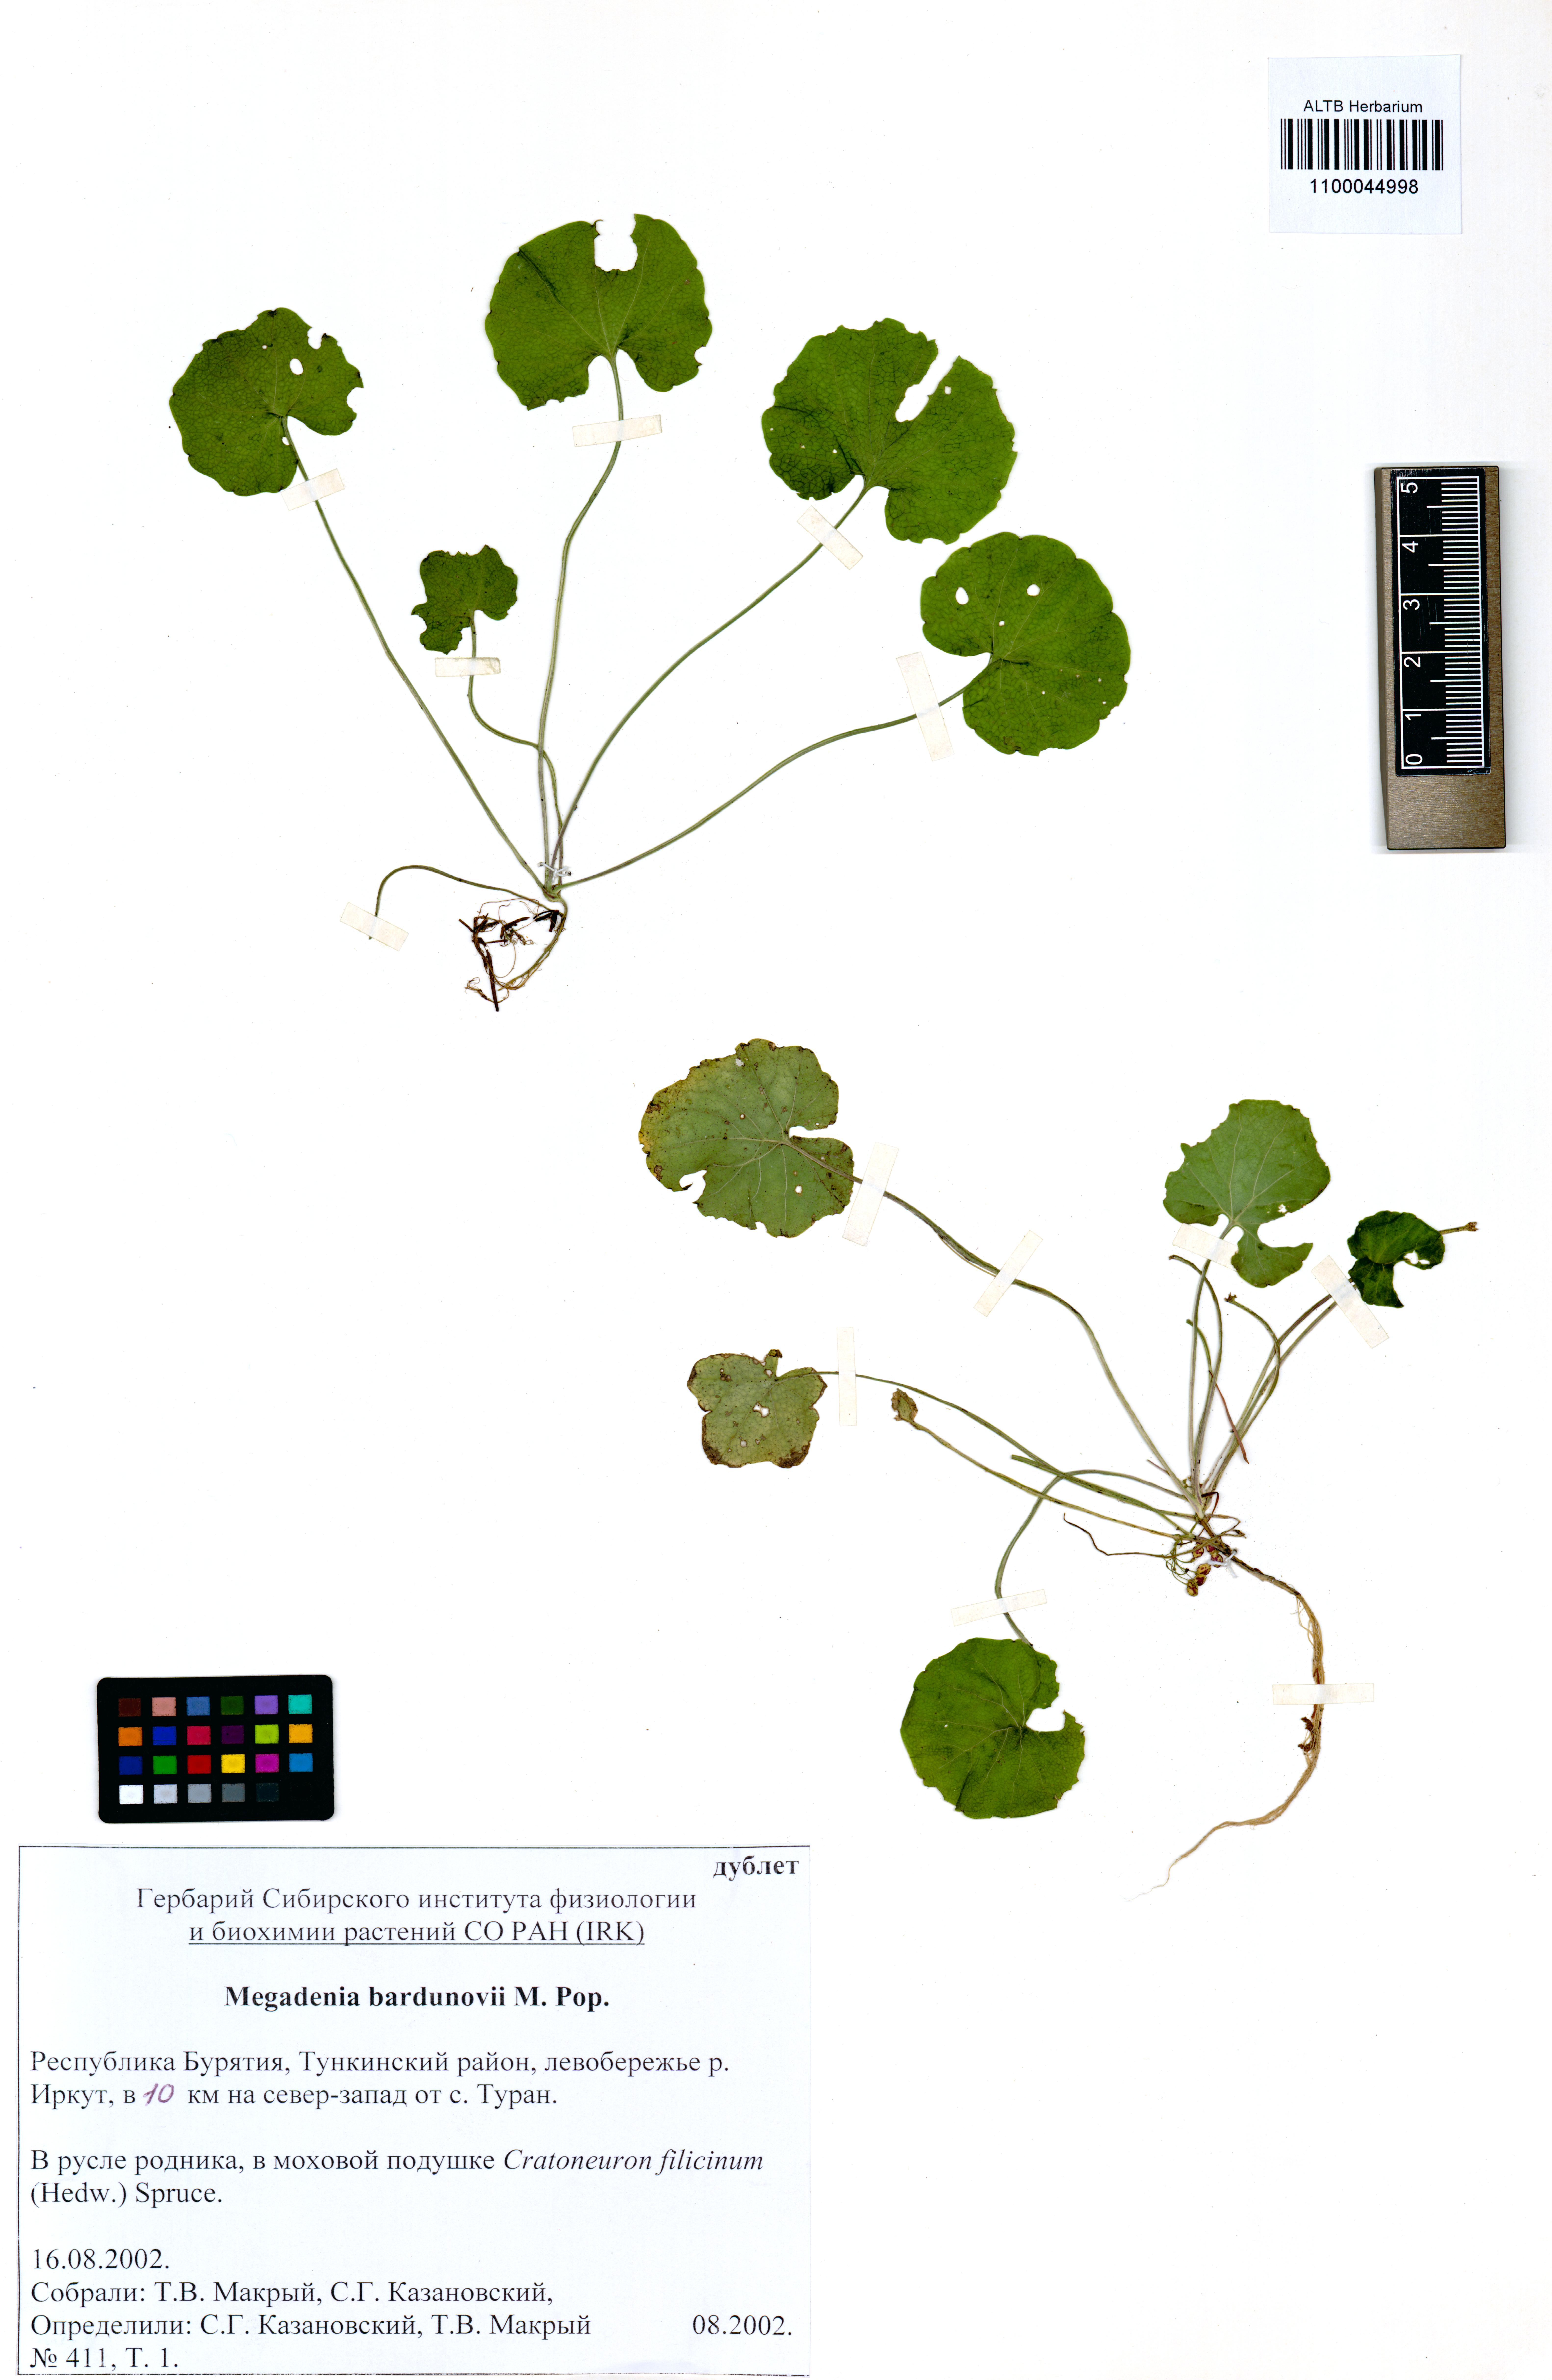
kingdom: Plantae
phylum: Tracheophyta
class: Magnoliopsida
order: Brassicales
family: Brassicaceae
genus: Megadenia
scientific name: Megadenia pygmaea
